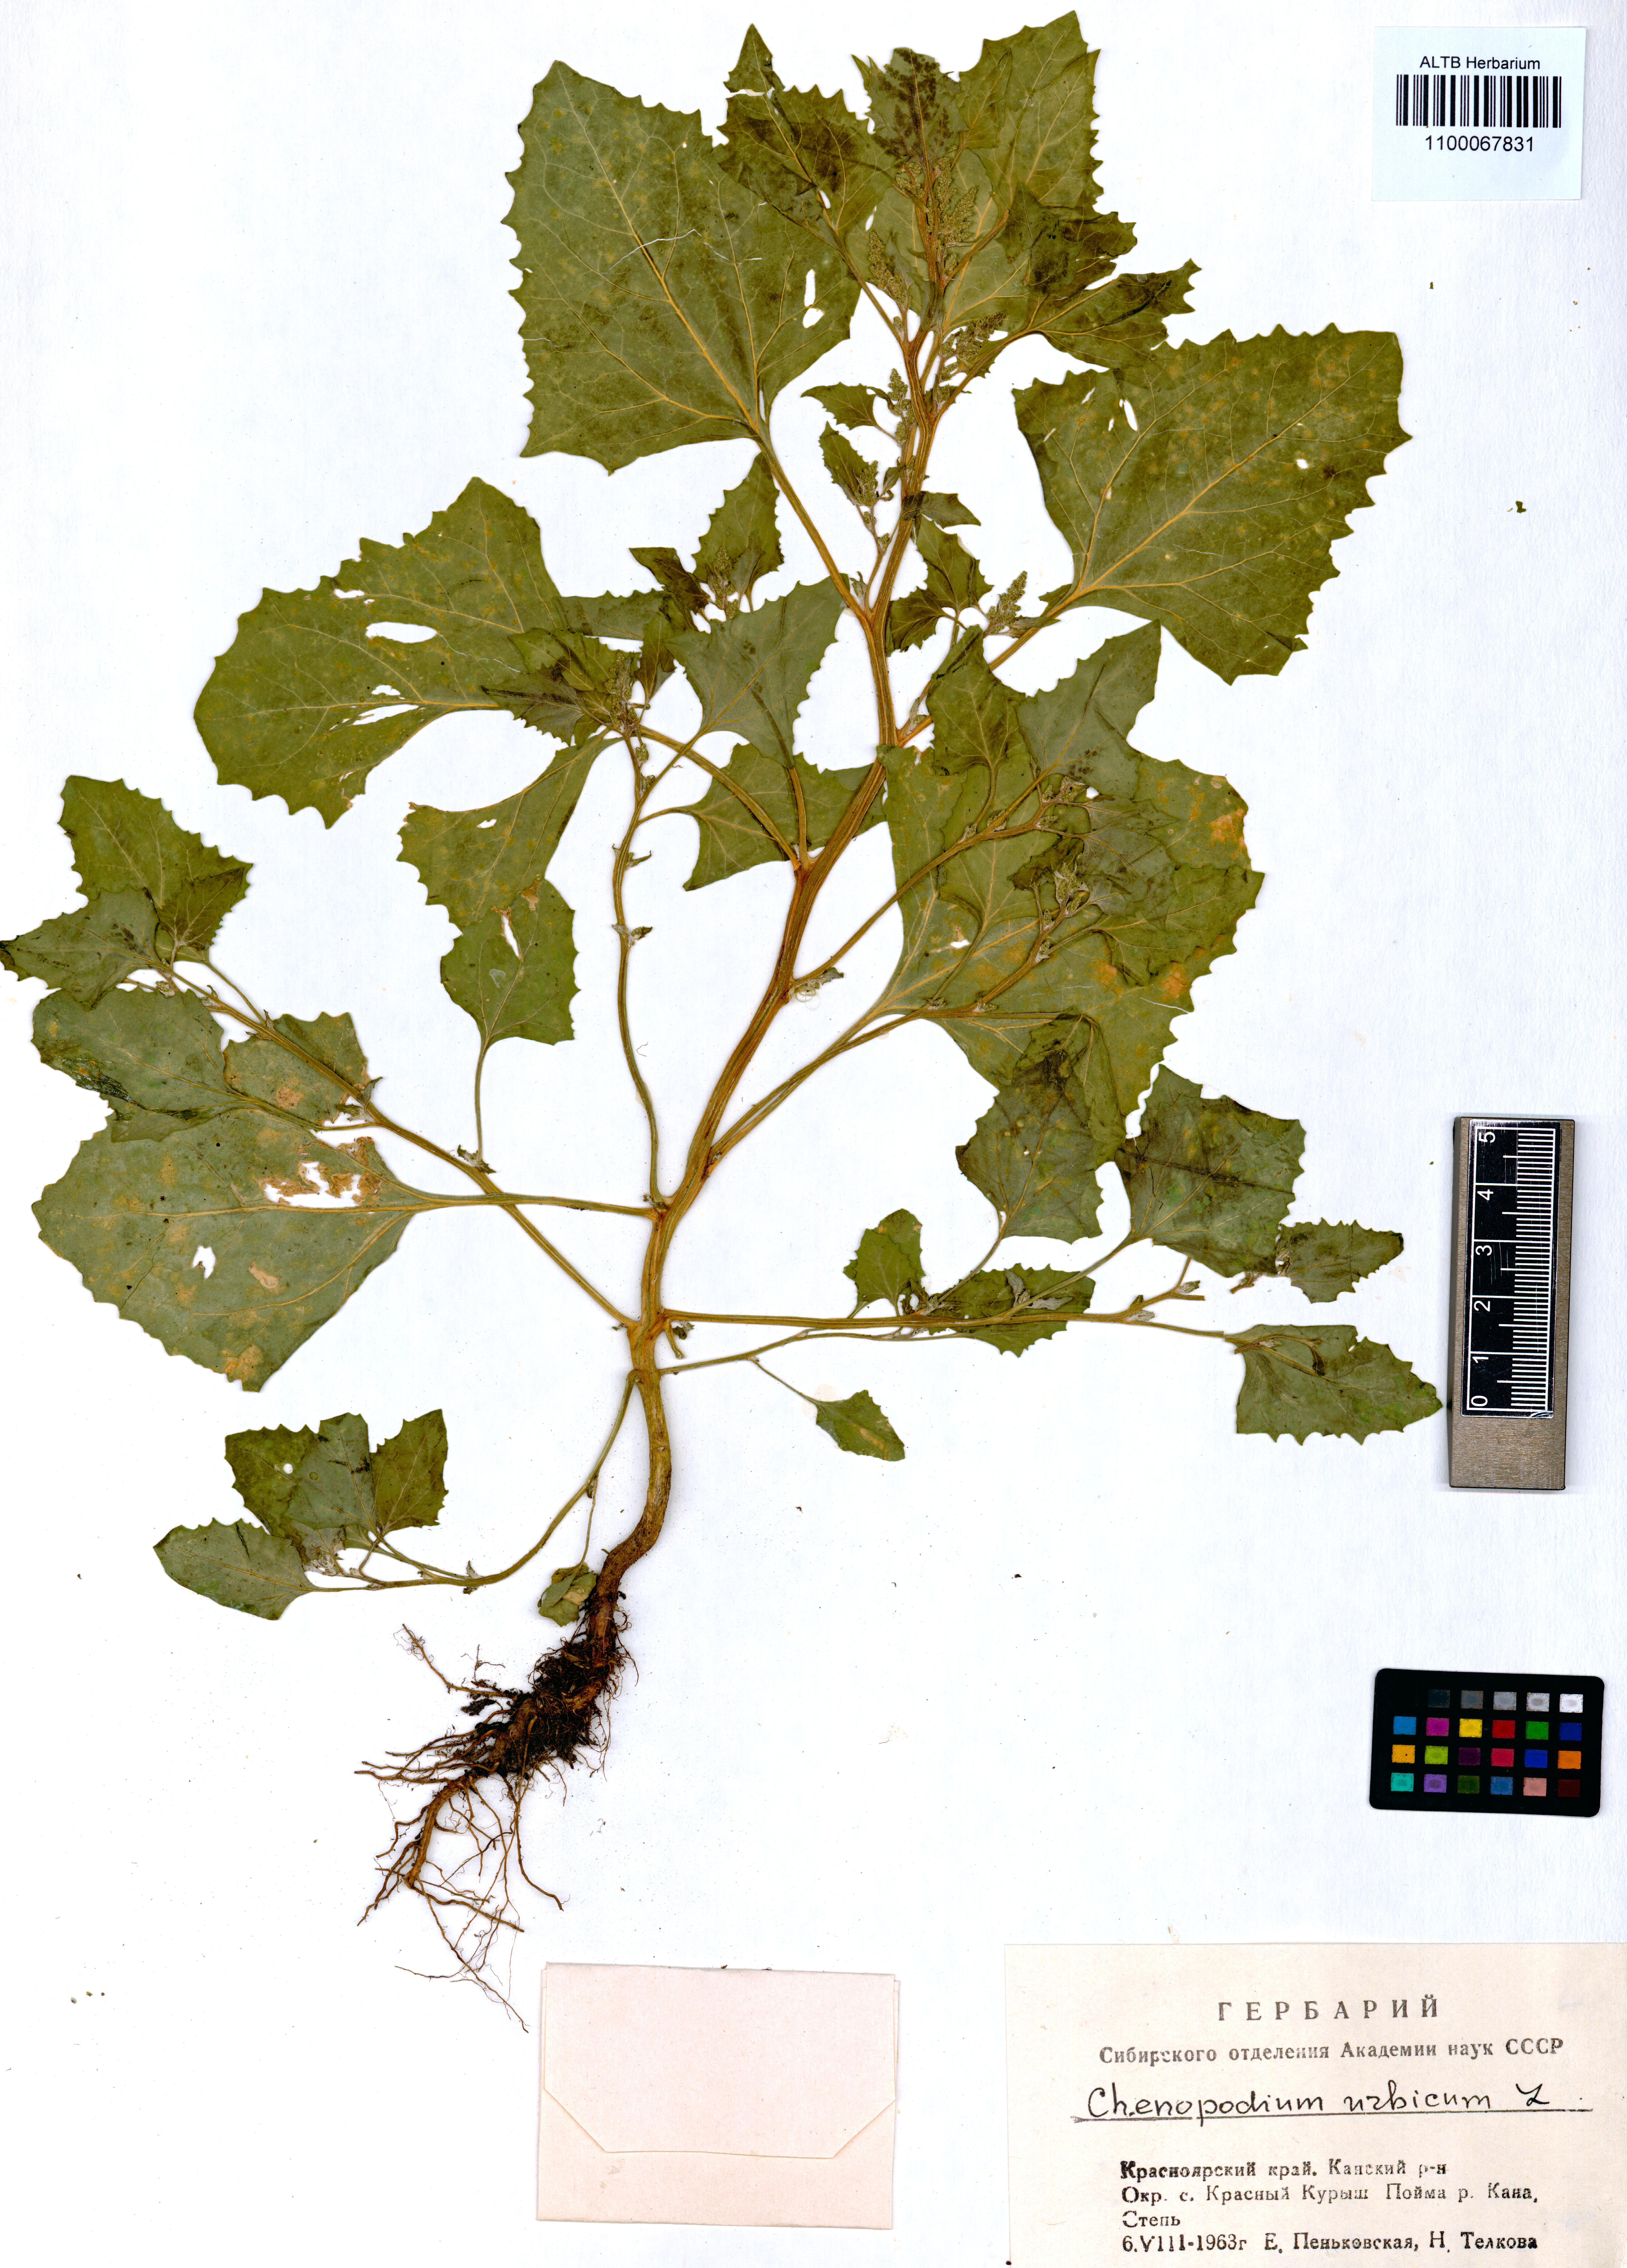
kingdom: Plantae
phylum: Tracheophyta
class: Magnoliopsida
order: Caryophyllales
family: Amaranthaceae
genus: Oxybasis
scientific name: Oxybasis urbica
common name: City goosefoot
